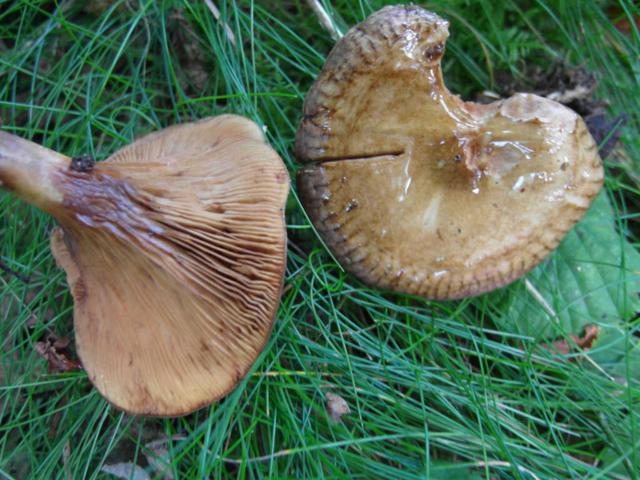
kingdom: Fungi
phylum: Basidiomycota
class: Agaricomycetes
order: Boletales
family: Paxillaceae
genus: Paxillus
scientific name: Paxillus rubicundulus
